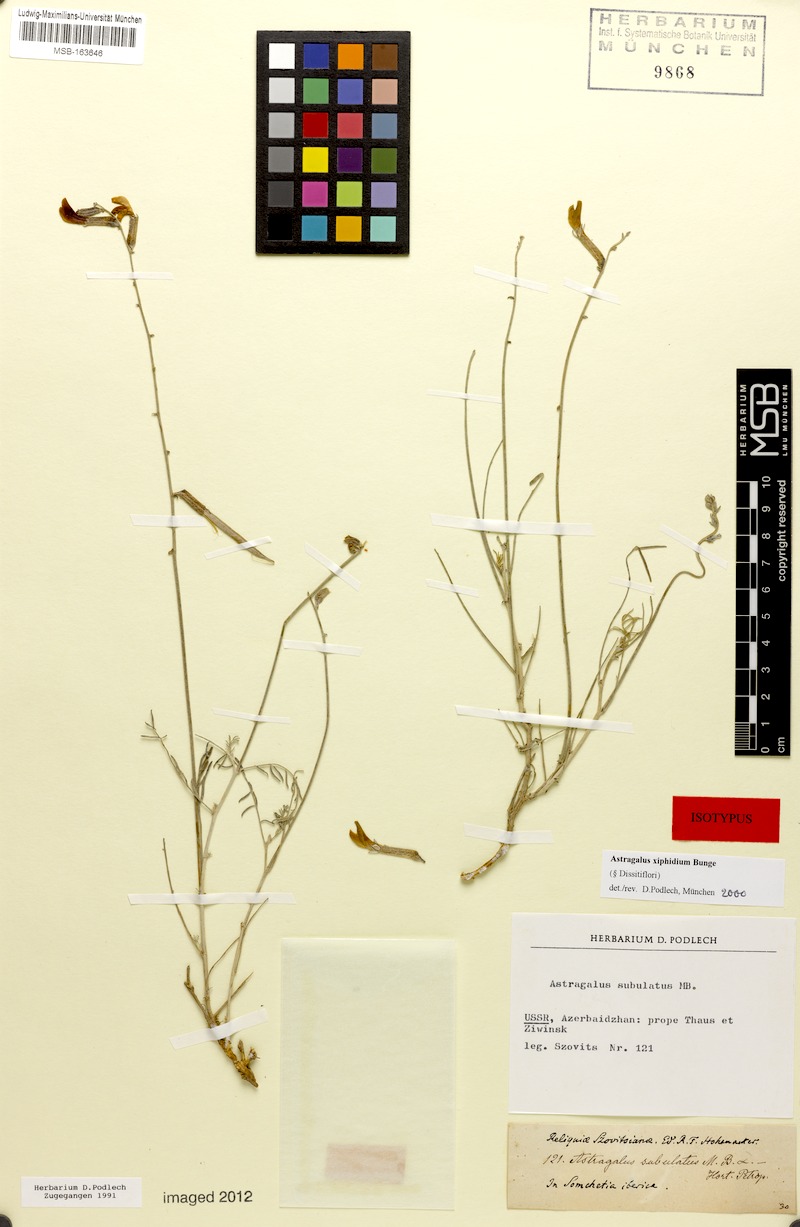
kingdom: Plantae
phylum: Tracheophyta
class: Magnoliopsida
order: Fabales
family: Fabaceae
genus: Astragalus
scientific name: Astragalus xiphidium
